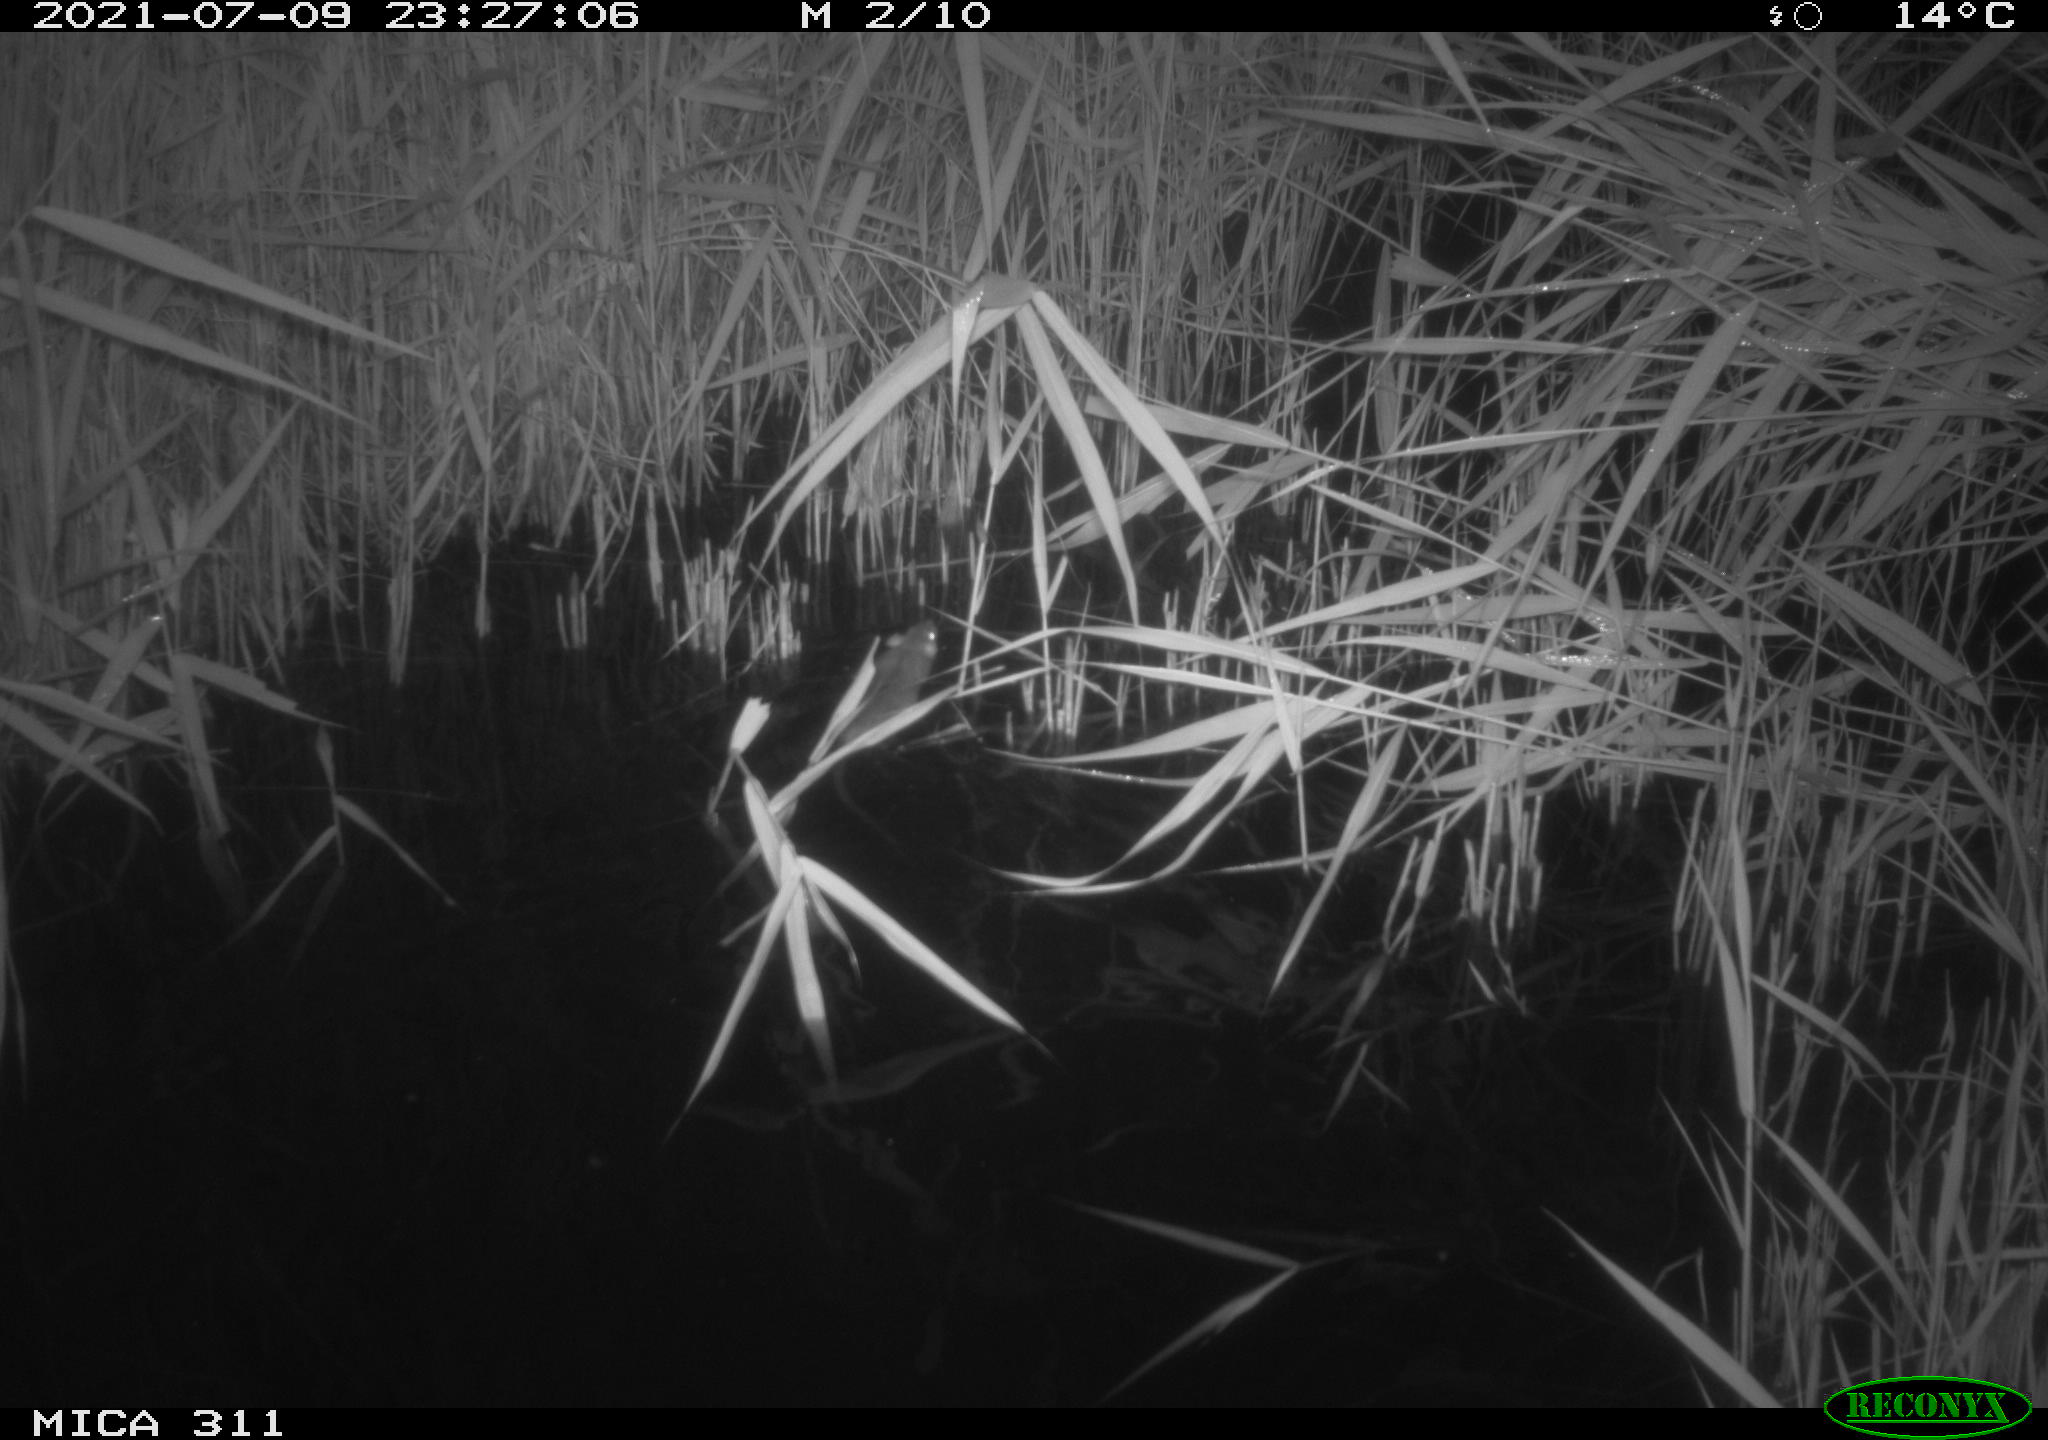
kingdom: Animalia
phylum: Chordata
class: Mammalia
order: Rodentia
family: Muridae
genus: Rattus
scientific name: Rattus norvegicus
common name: Brown rat
